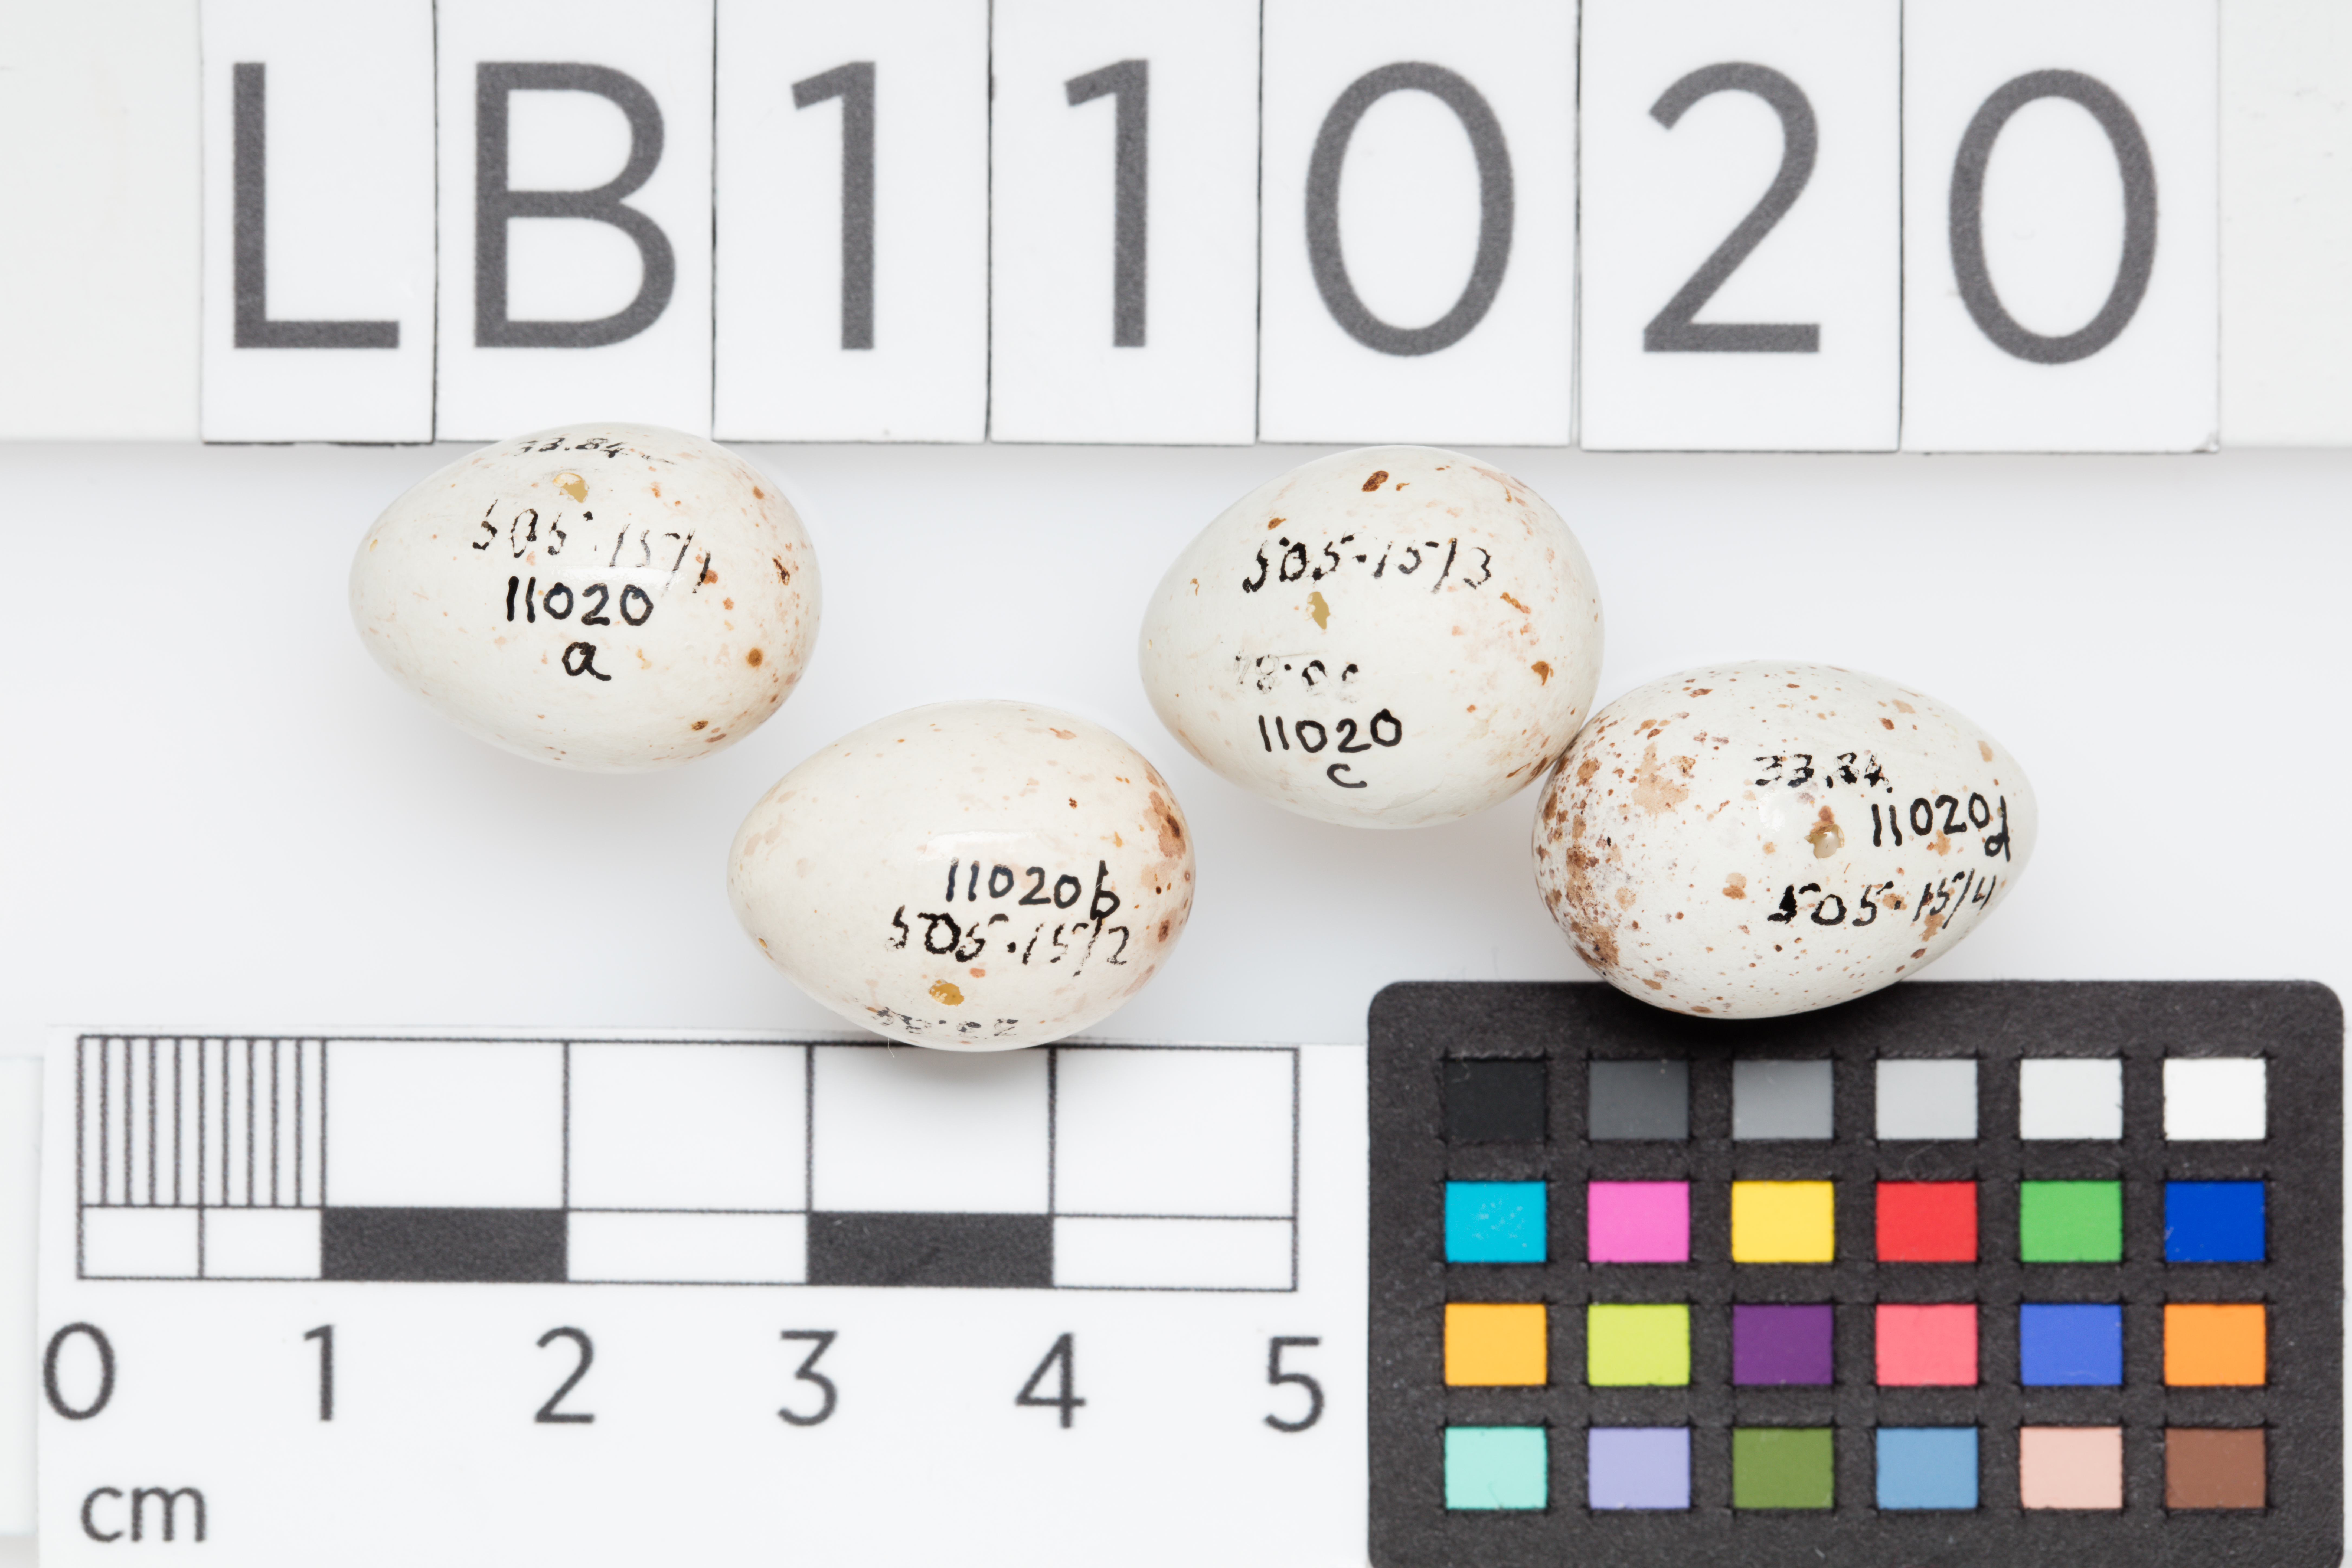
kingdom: Plantae
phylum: Tracheophyta
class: Liliopsida
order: Poales
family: Poaceae
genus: Chloris
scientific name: Chloris chloris
